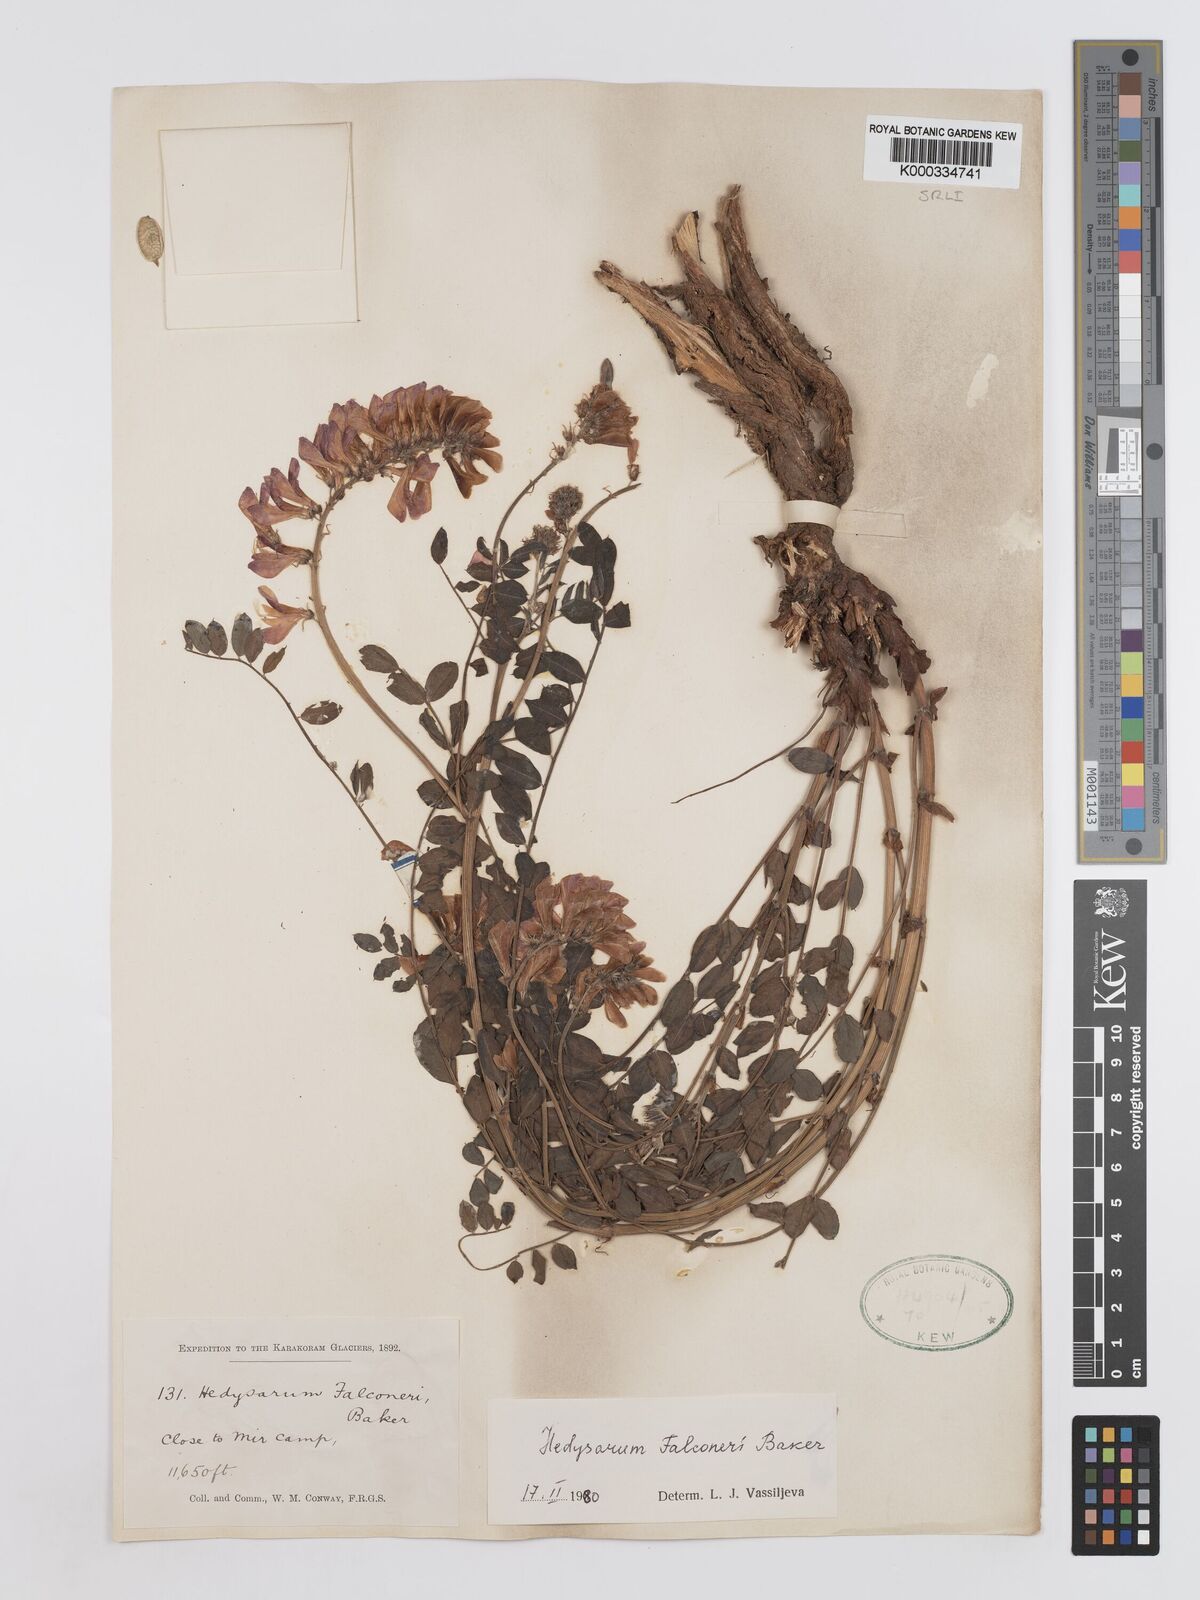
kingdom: Plantae
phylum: Tracheophyta
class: Magnoliopsida
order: Fabales
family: Fabaceae
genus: Hedysarum
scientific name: Hedysarum falconeri
